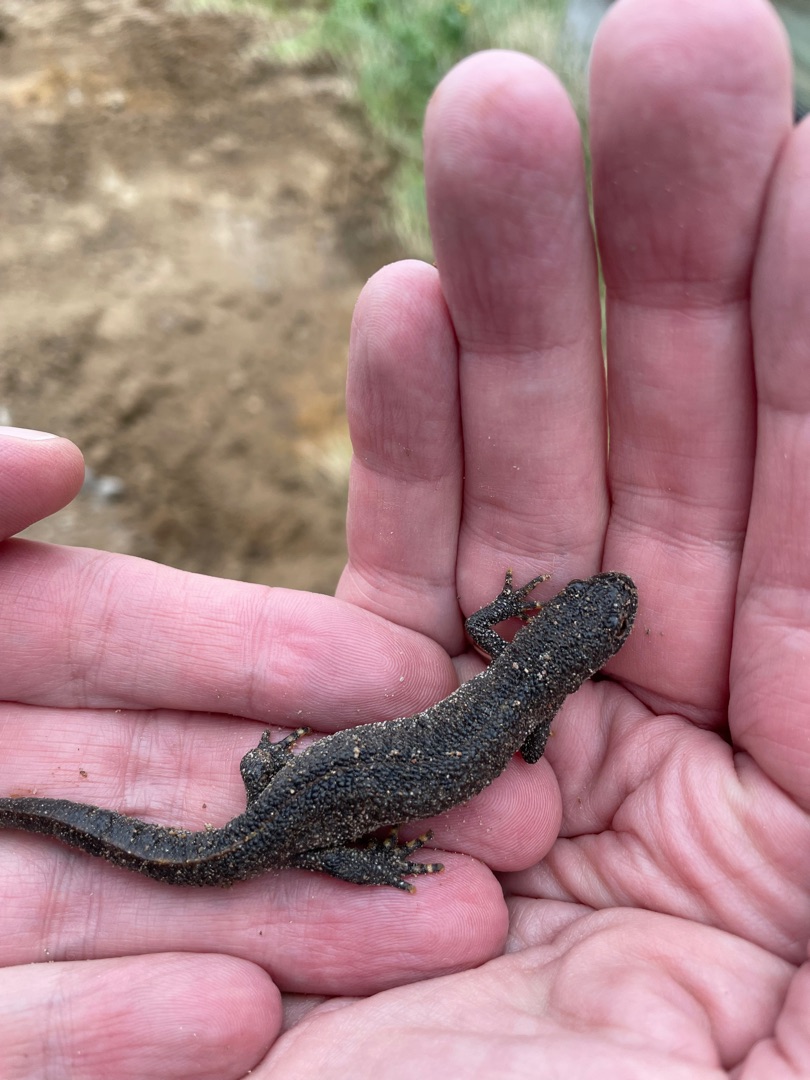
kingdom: Animalia
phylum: Chordata
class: Amphibia
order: Caudata
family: Salamandridae
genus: Triturus
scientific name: Triturus cristatus
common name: Stor vandsalamander
